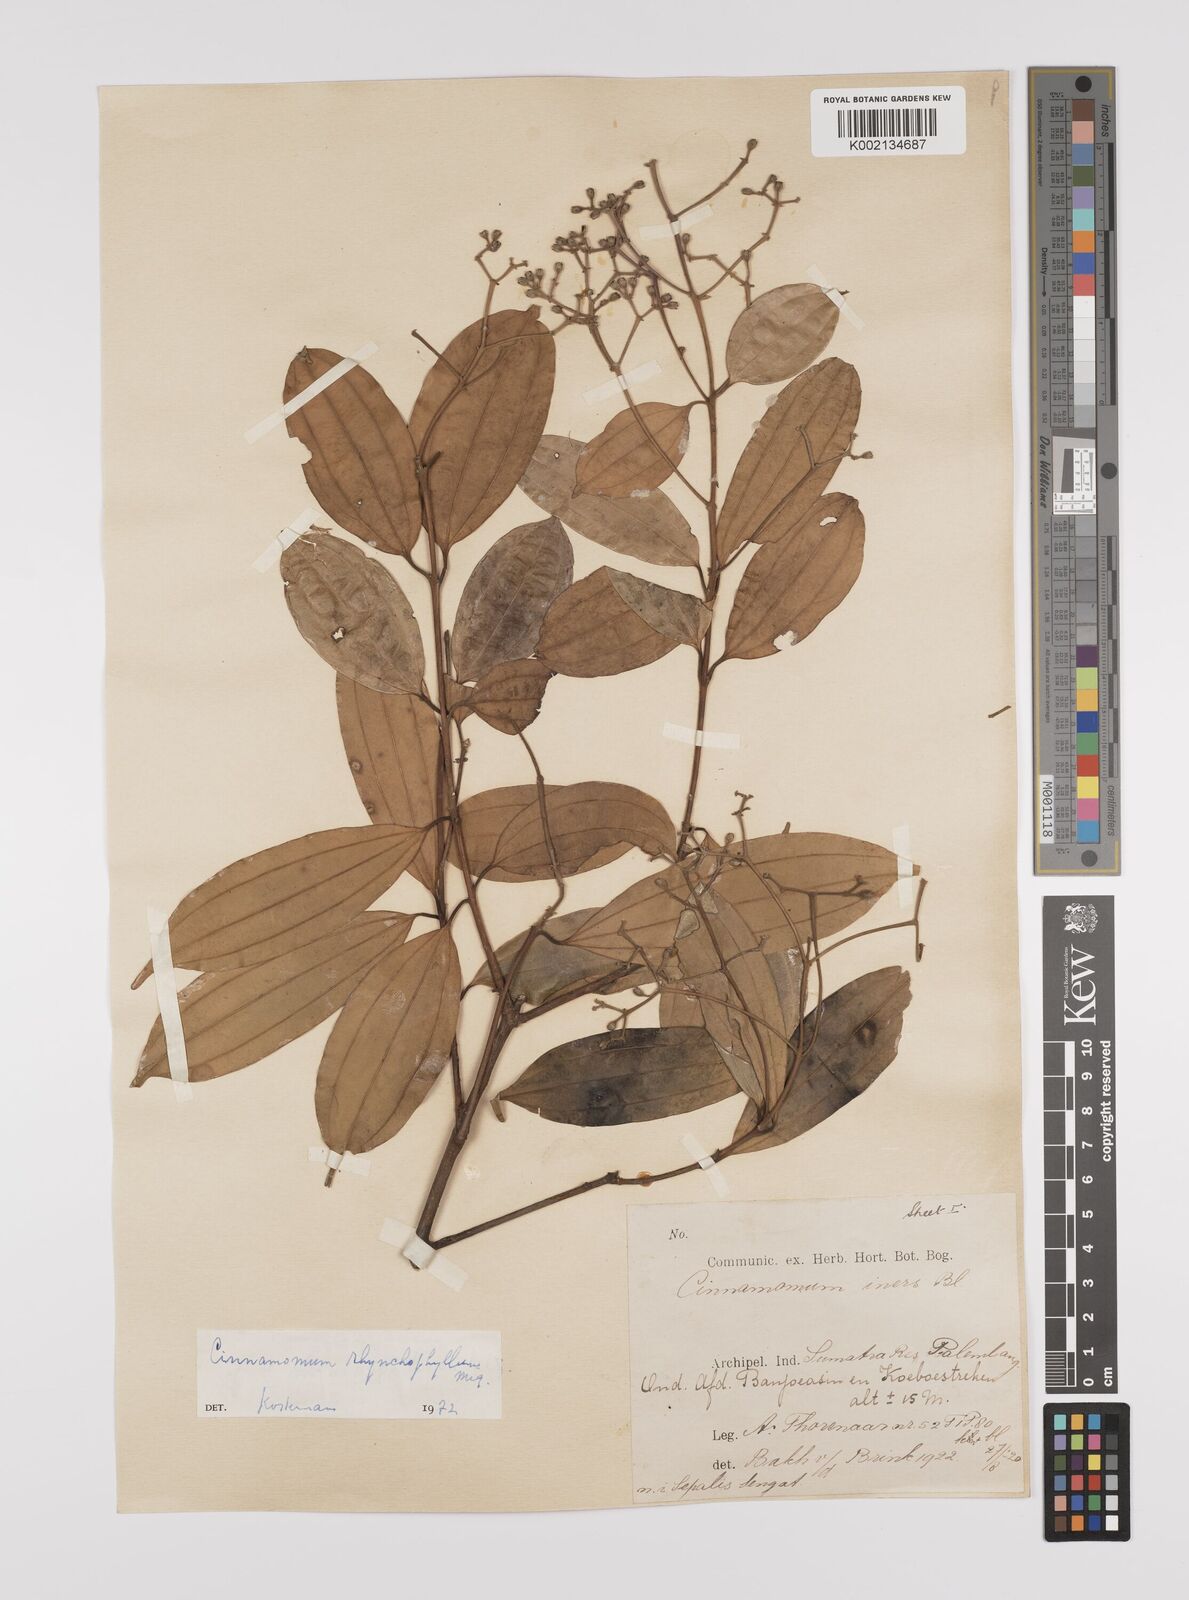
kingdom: Plantae
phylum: Tracheophyta
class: Magnoliopsida
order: Laurales
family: Lauraceae
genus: Cinnamomum
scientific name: Cinnamomum rhynchophyllum
